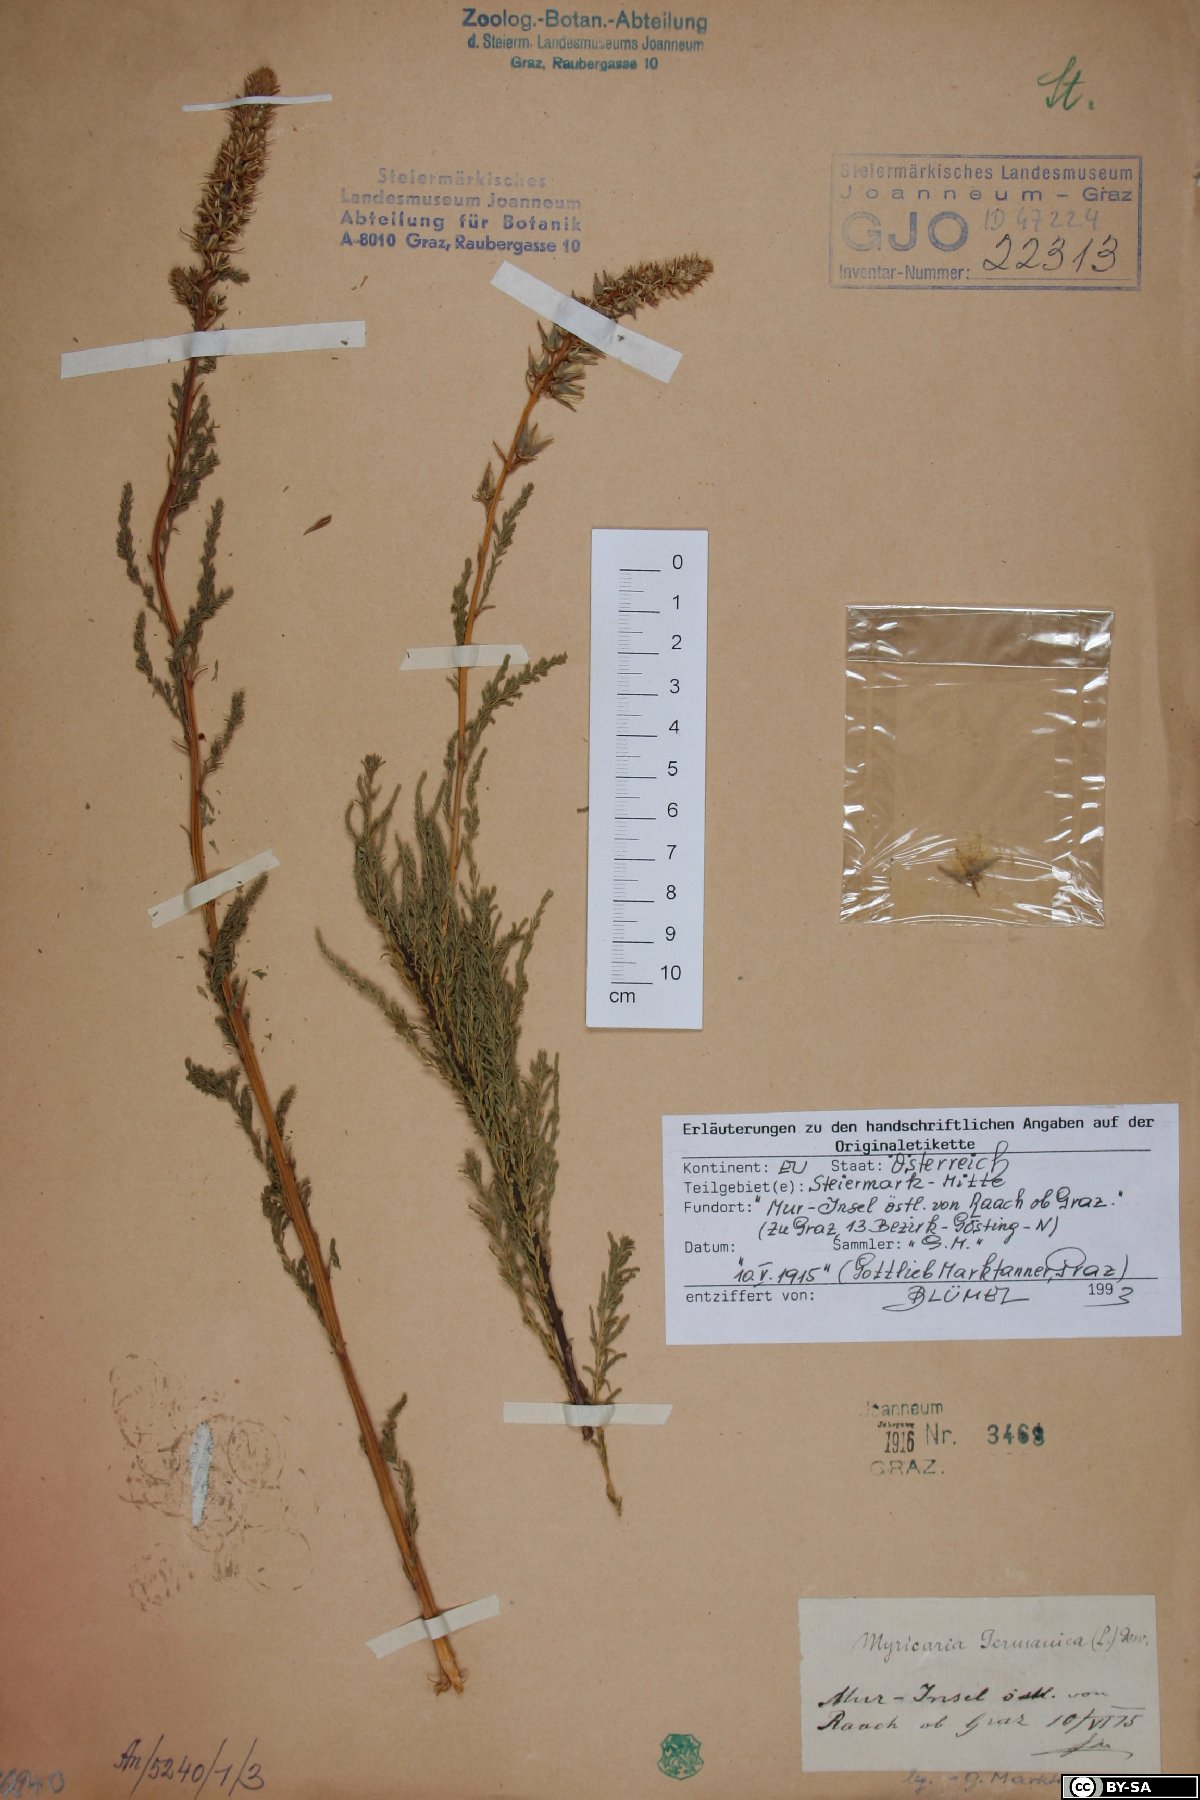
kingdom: Plantae
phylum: Tracheophyta
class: Magnoliopsida
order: Caryophyllales
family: Tamaricaceae
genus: Myricaria
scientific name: Myricaria germanica
